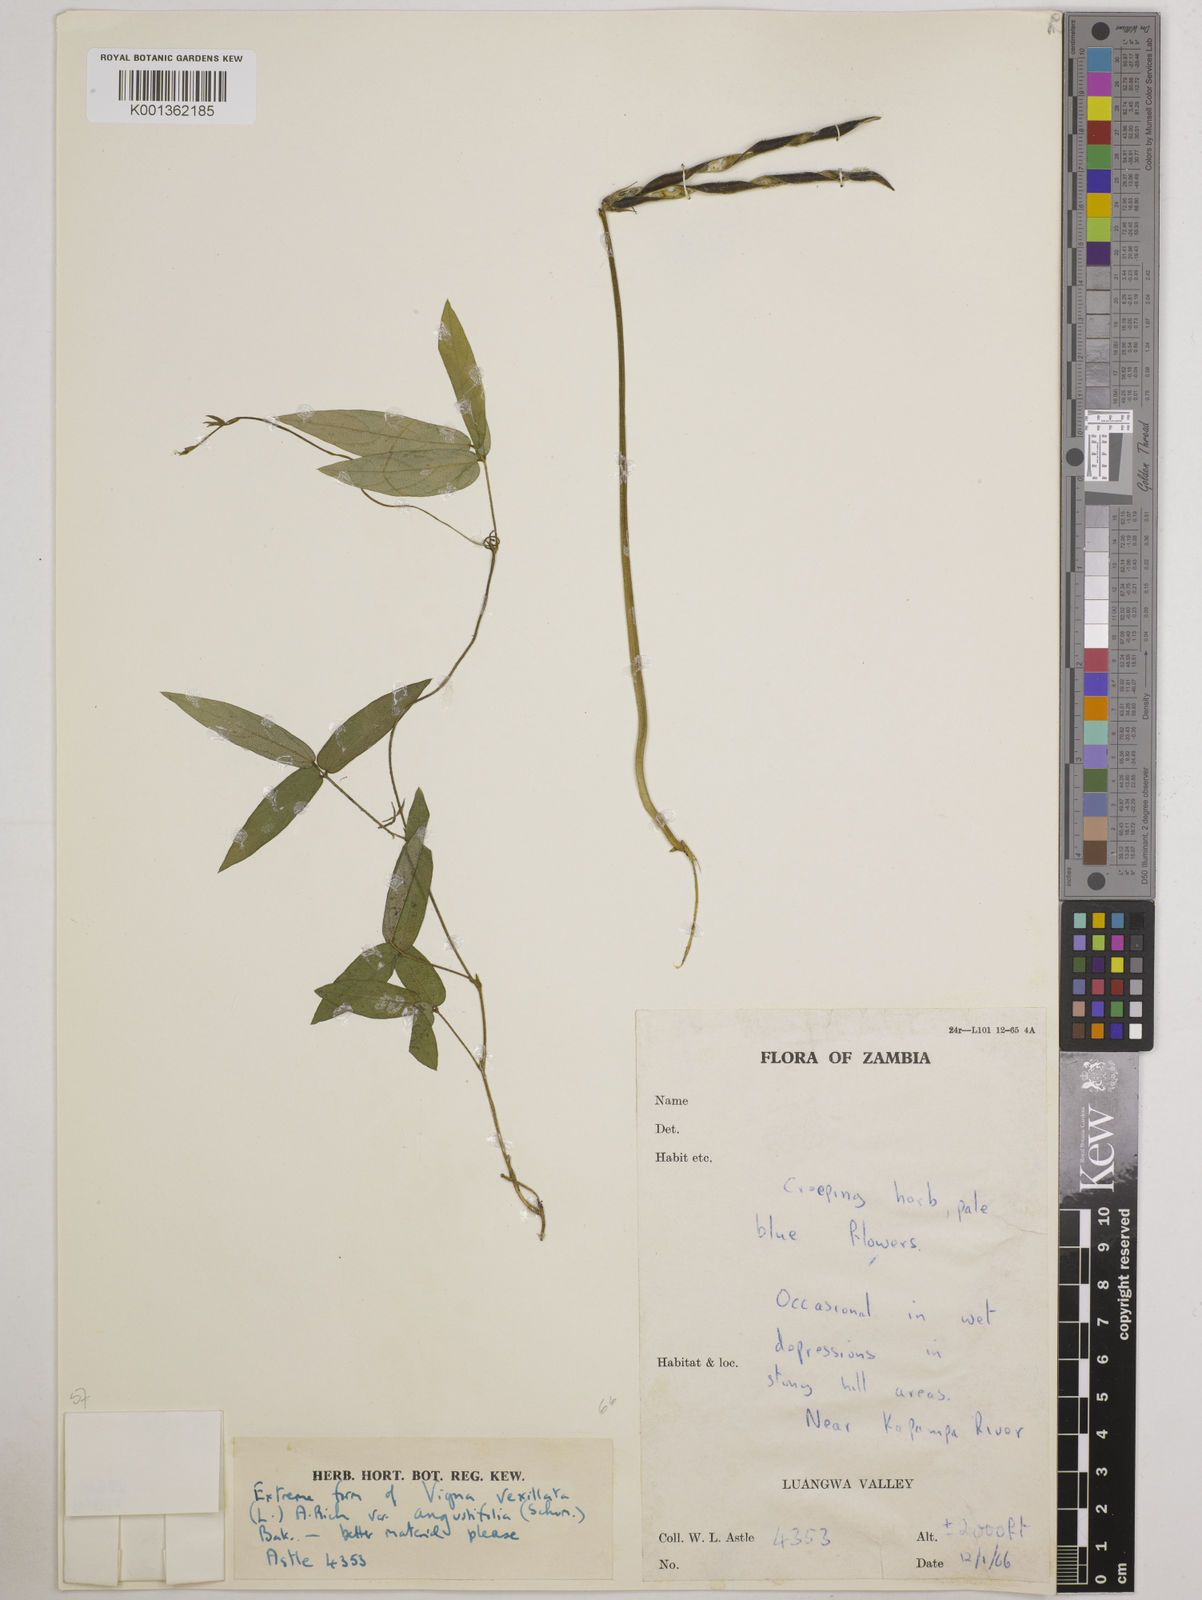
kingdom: Plantae
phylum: Tracheophyta
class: Magnoliopsida
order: Fabales
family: Fabaceae
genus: Vigna
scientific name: Vigna vexillata
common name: Zombi pea
